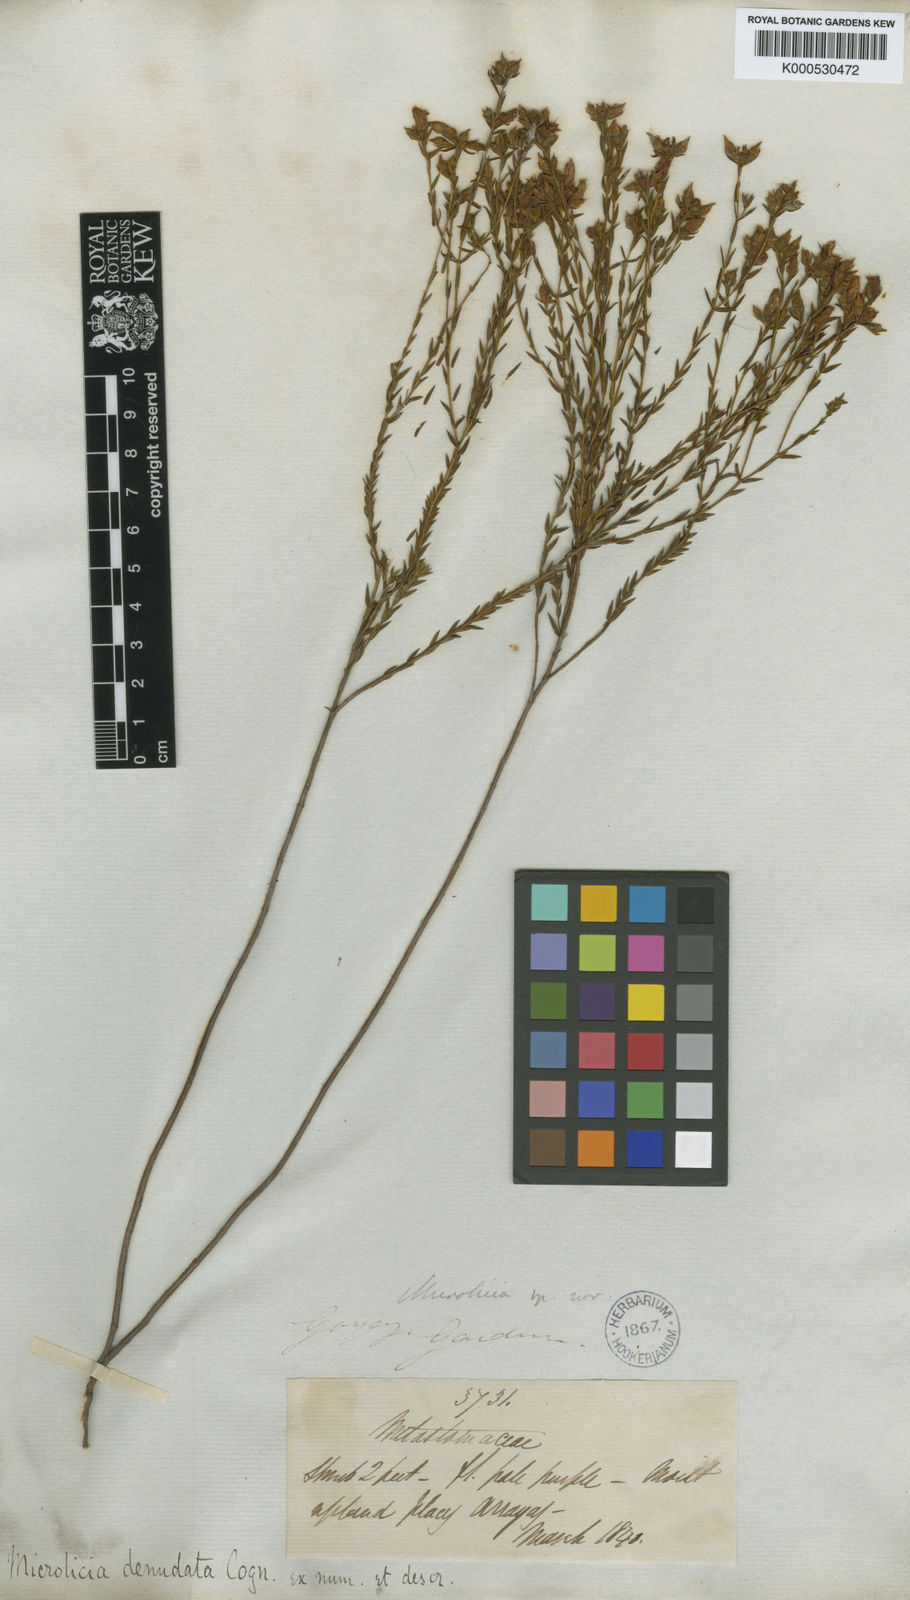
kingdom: Plantae
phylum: Tracheophyta
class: Magnoliopsida
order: Myrtales
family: Melastomataceae
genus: Microlicia
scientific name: Microlicia denudata
